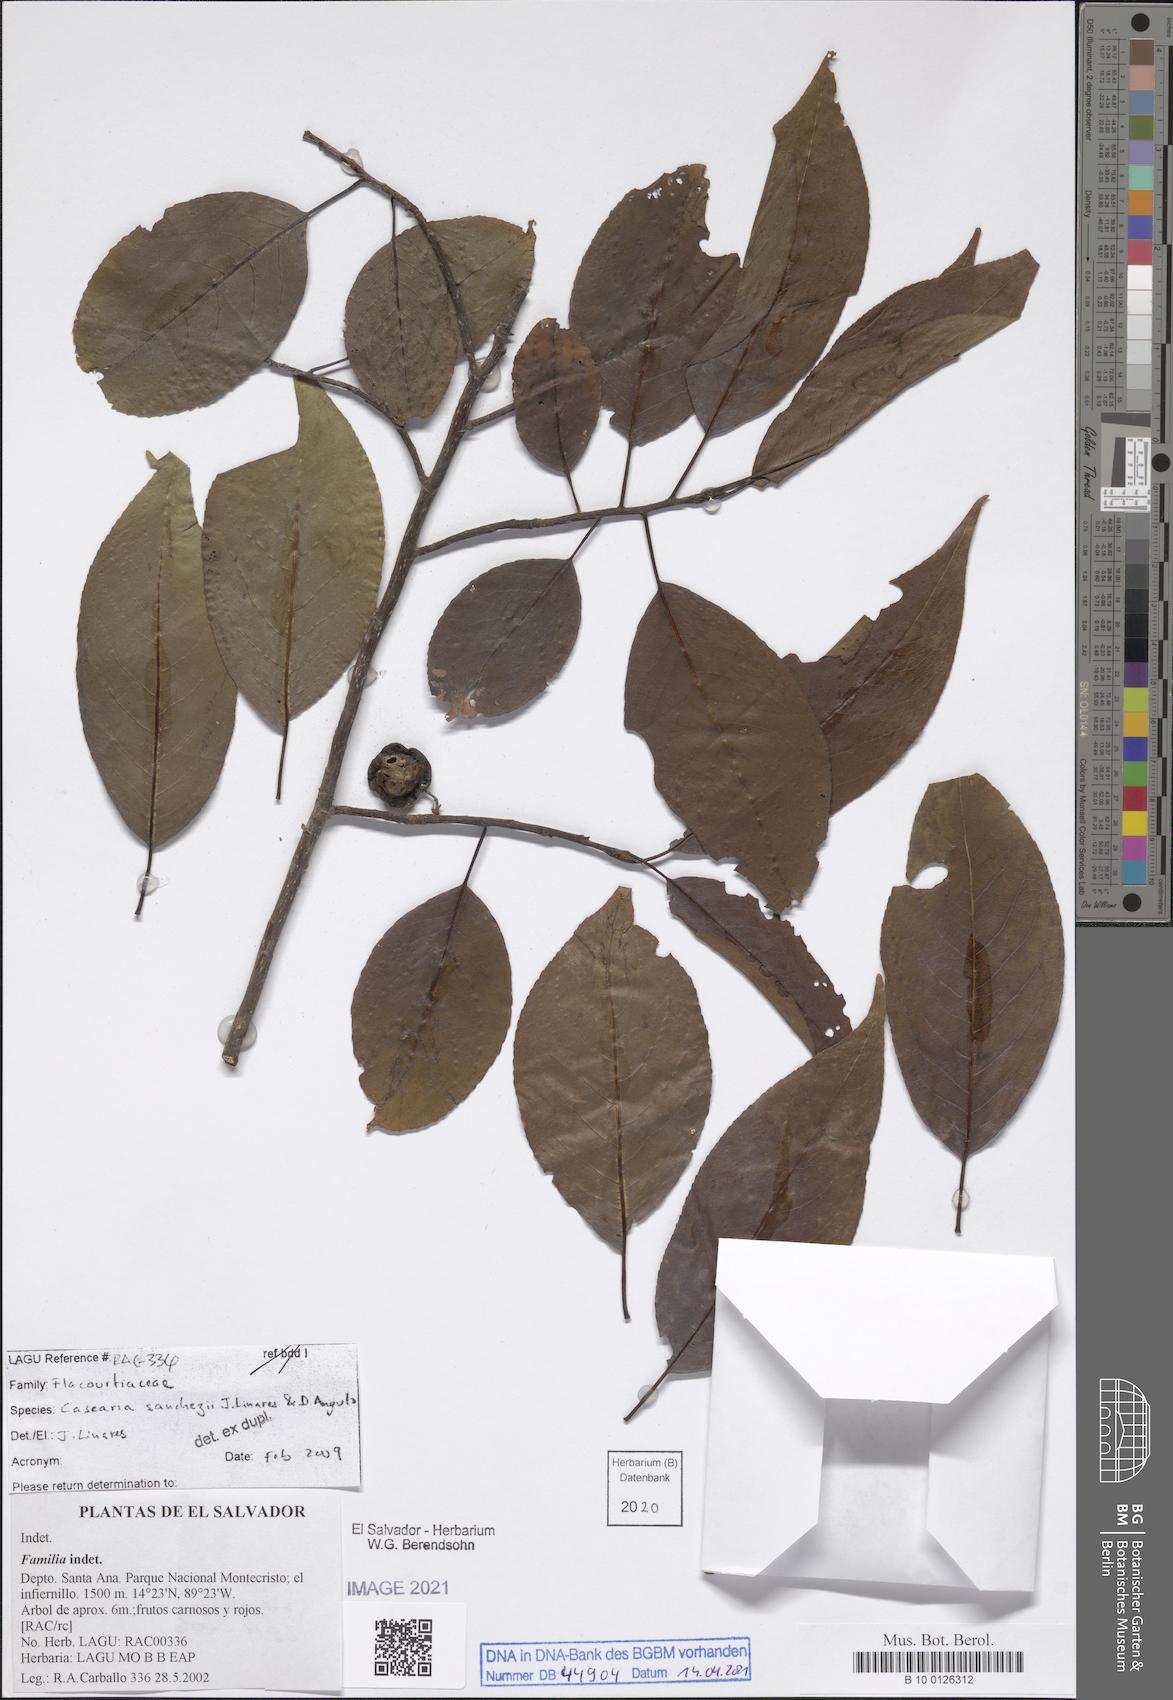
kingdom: Plantae
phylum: Tracheophyta
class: Magnoliopsida
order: Malpighiales
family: Salicaceae
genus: Casearia
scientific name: Casearia sanchezii
